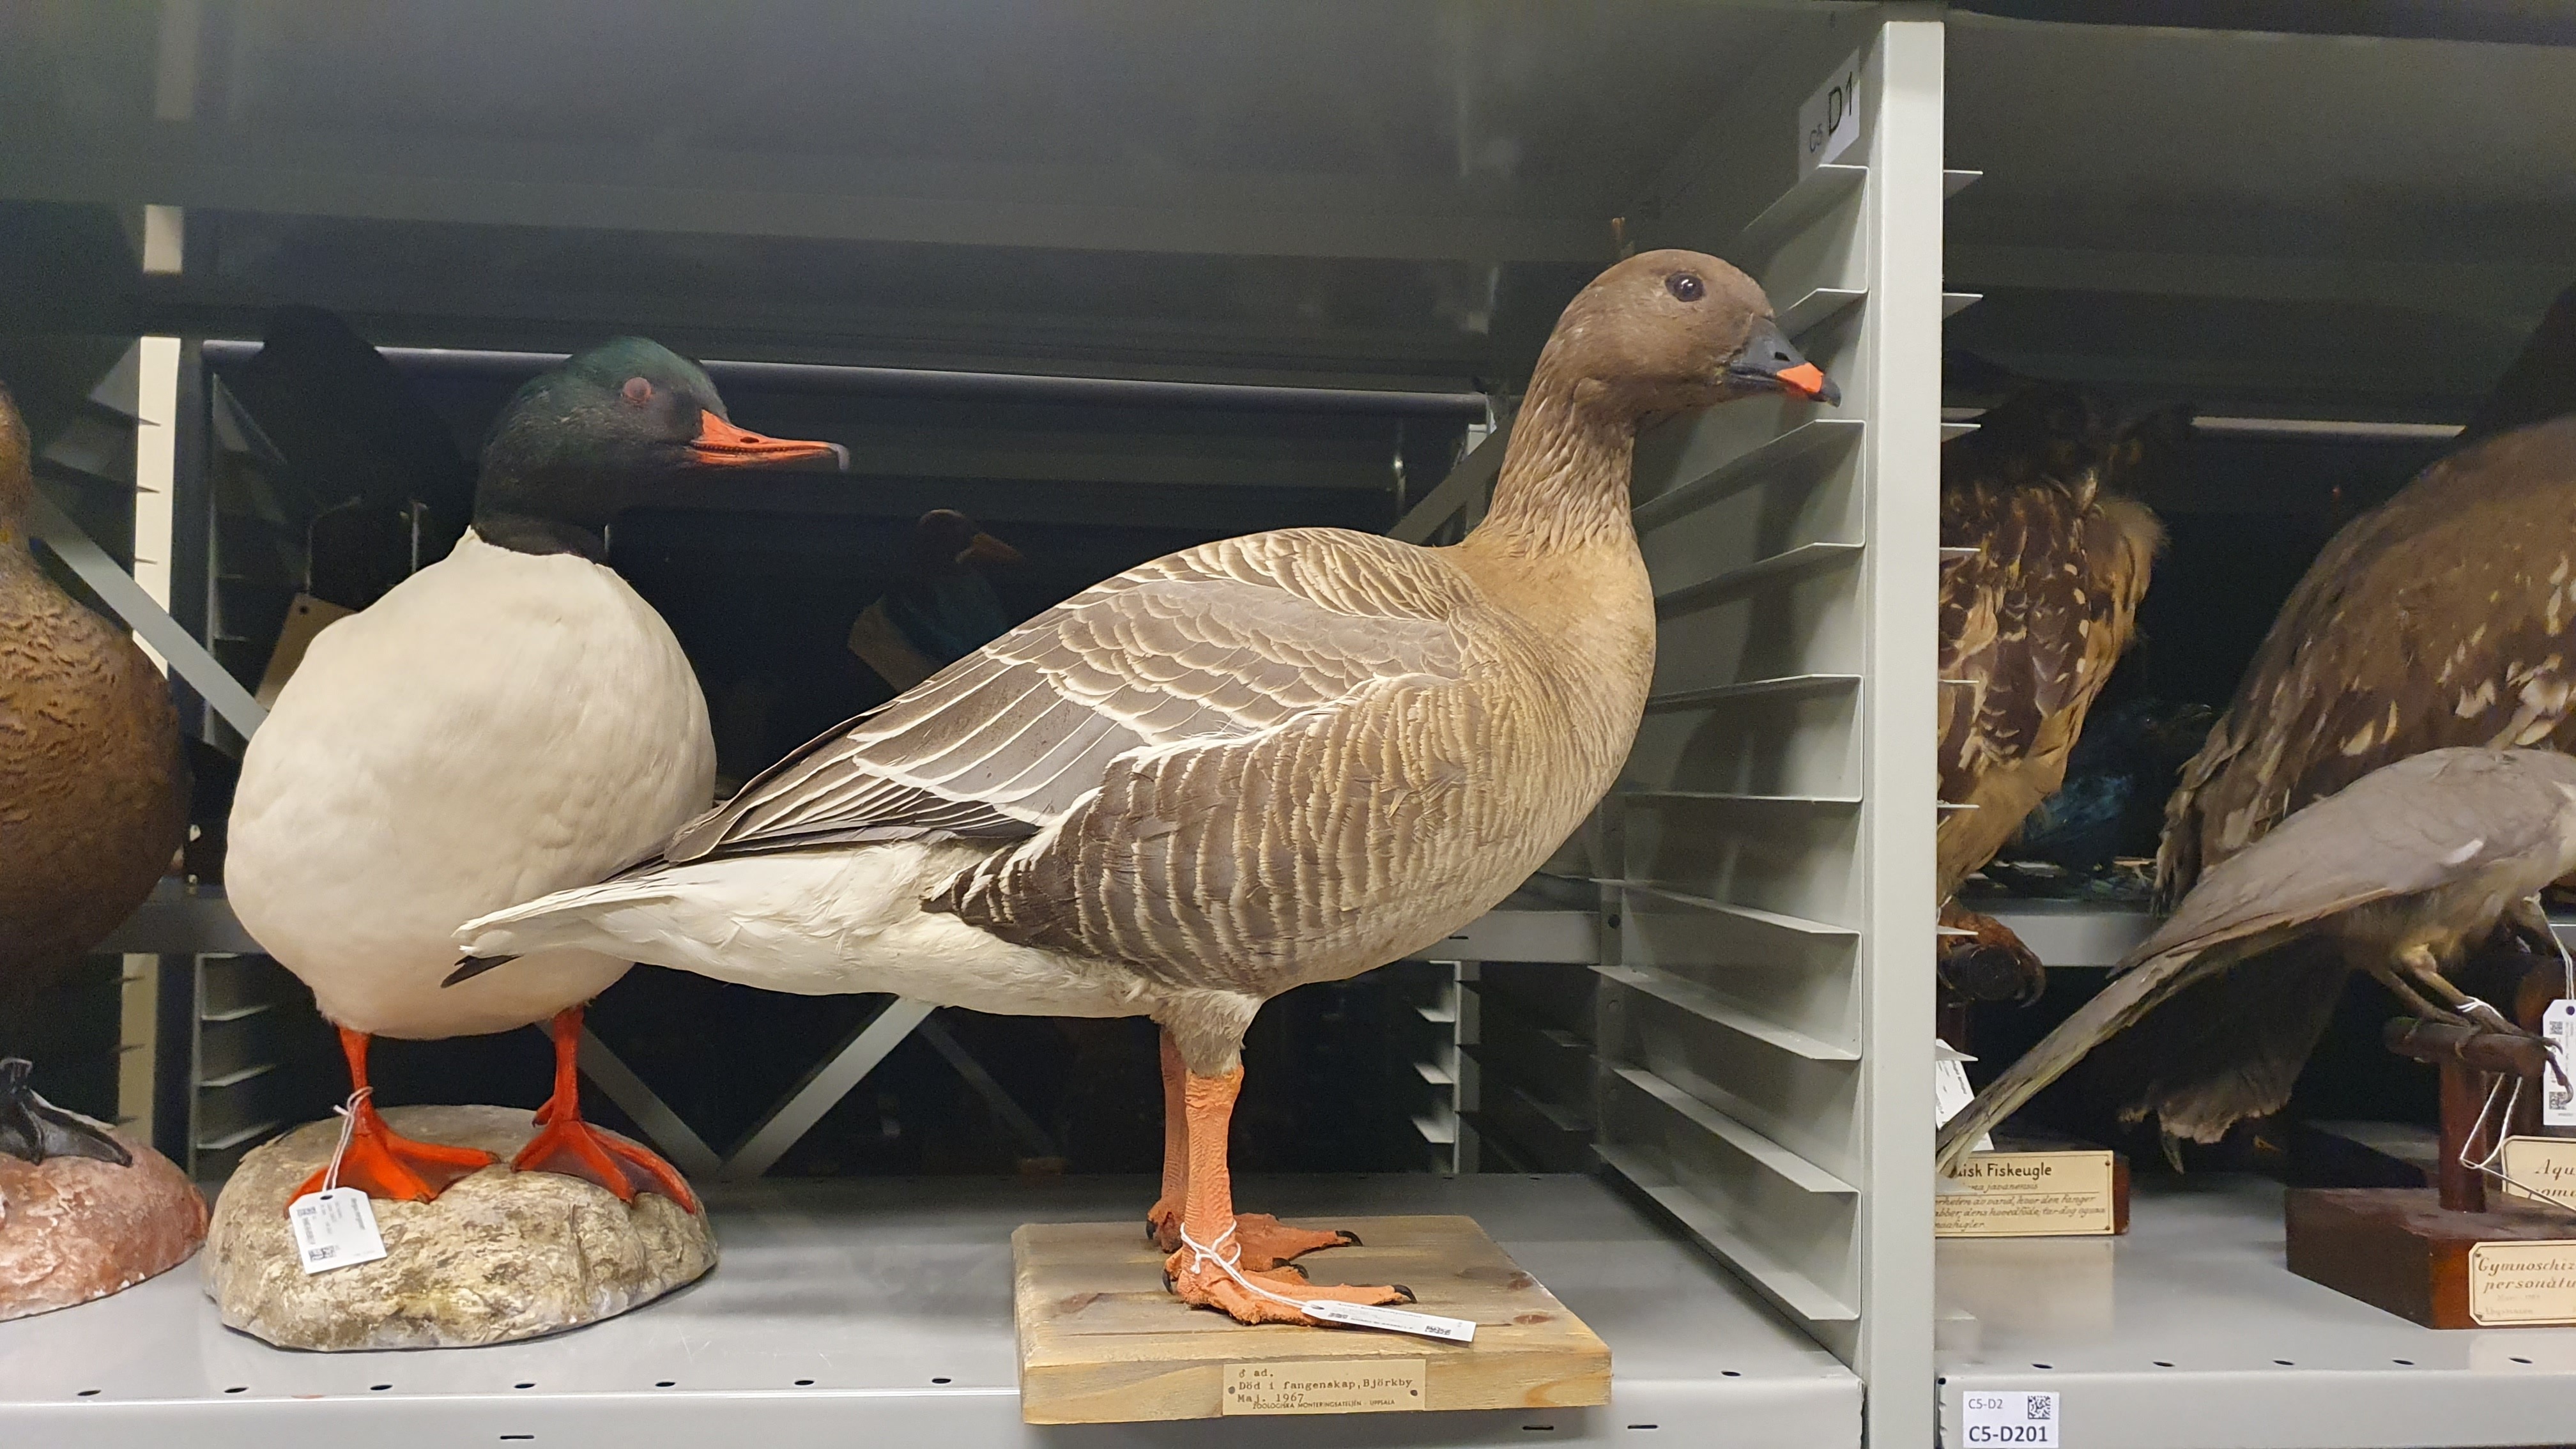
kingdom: Animalia
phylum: Chordata
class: Aves
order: Anseriformes
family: Anatidae
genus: Anser
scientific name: Anser brachyrhynchus
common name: Pink-footed goose
